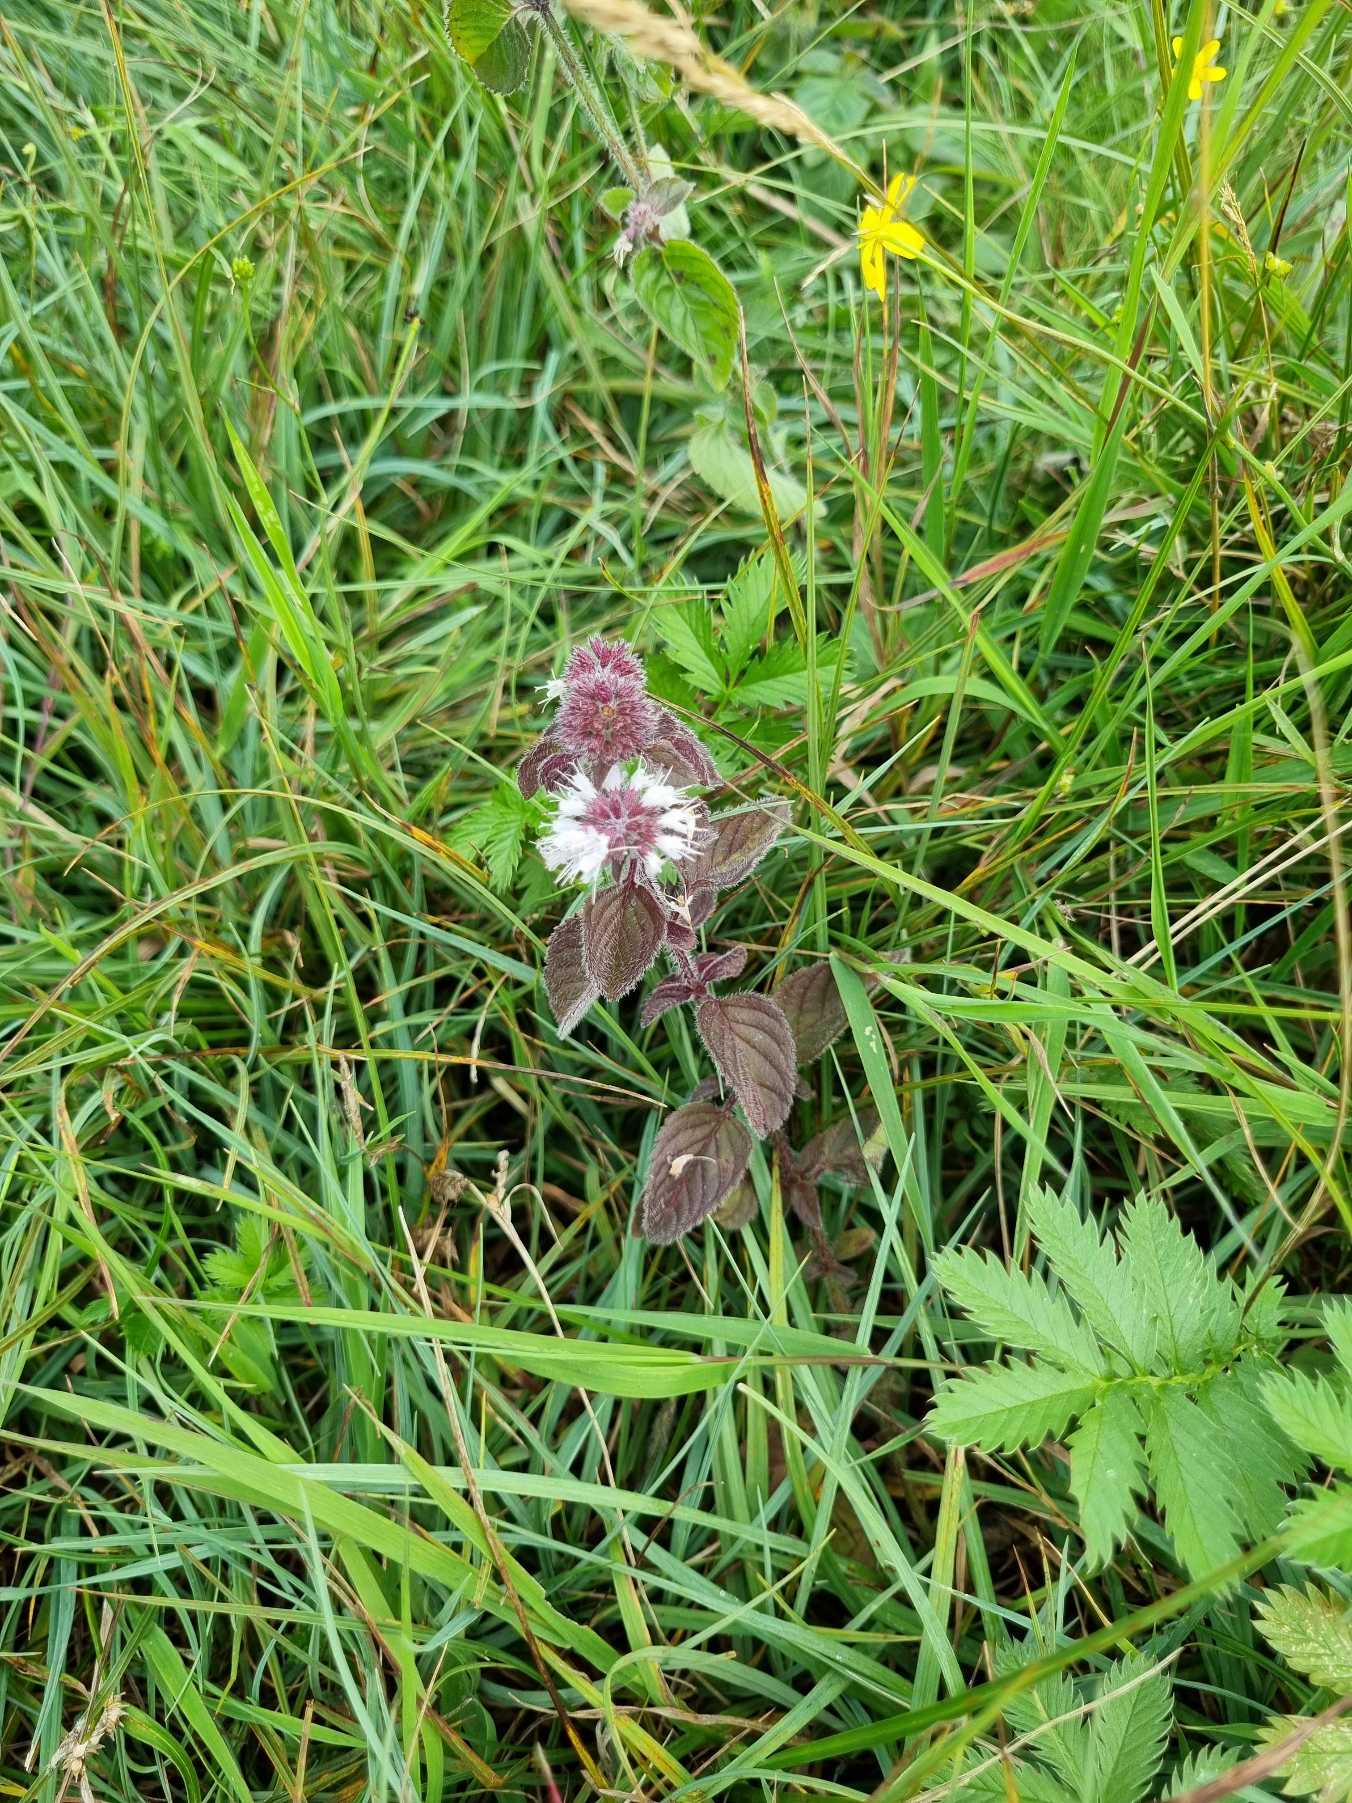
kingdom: Plantae
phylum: Tracheophyta
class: Magnoliopsida
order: Lamiales
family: Lamiaceae
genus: Mentha
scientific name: Mentha aquatica
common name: Vand-mynte
